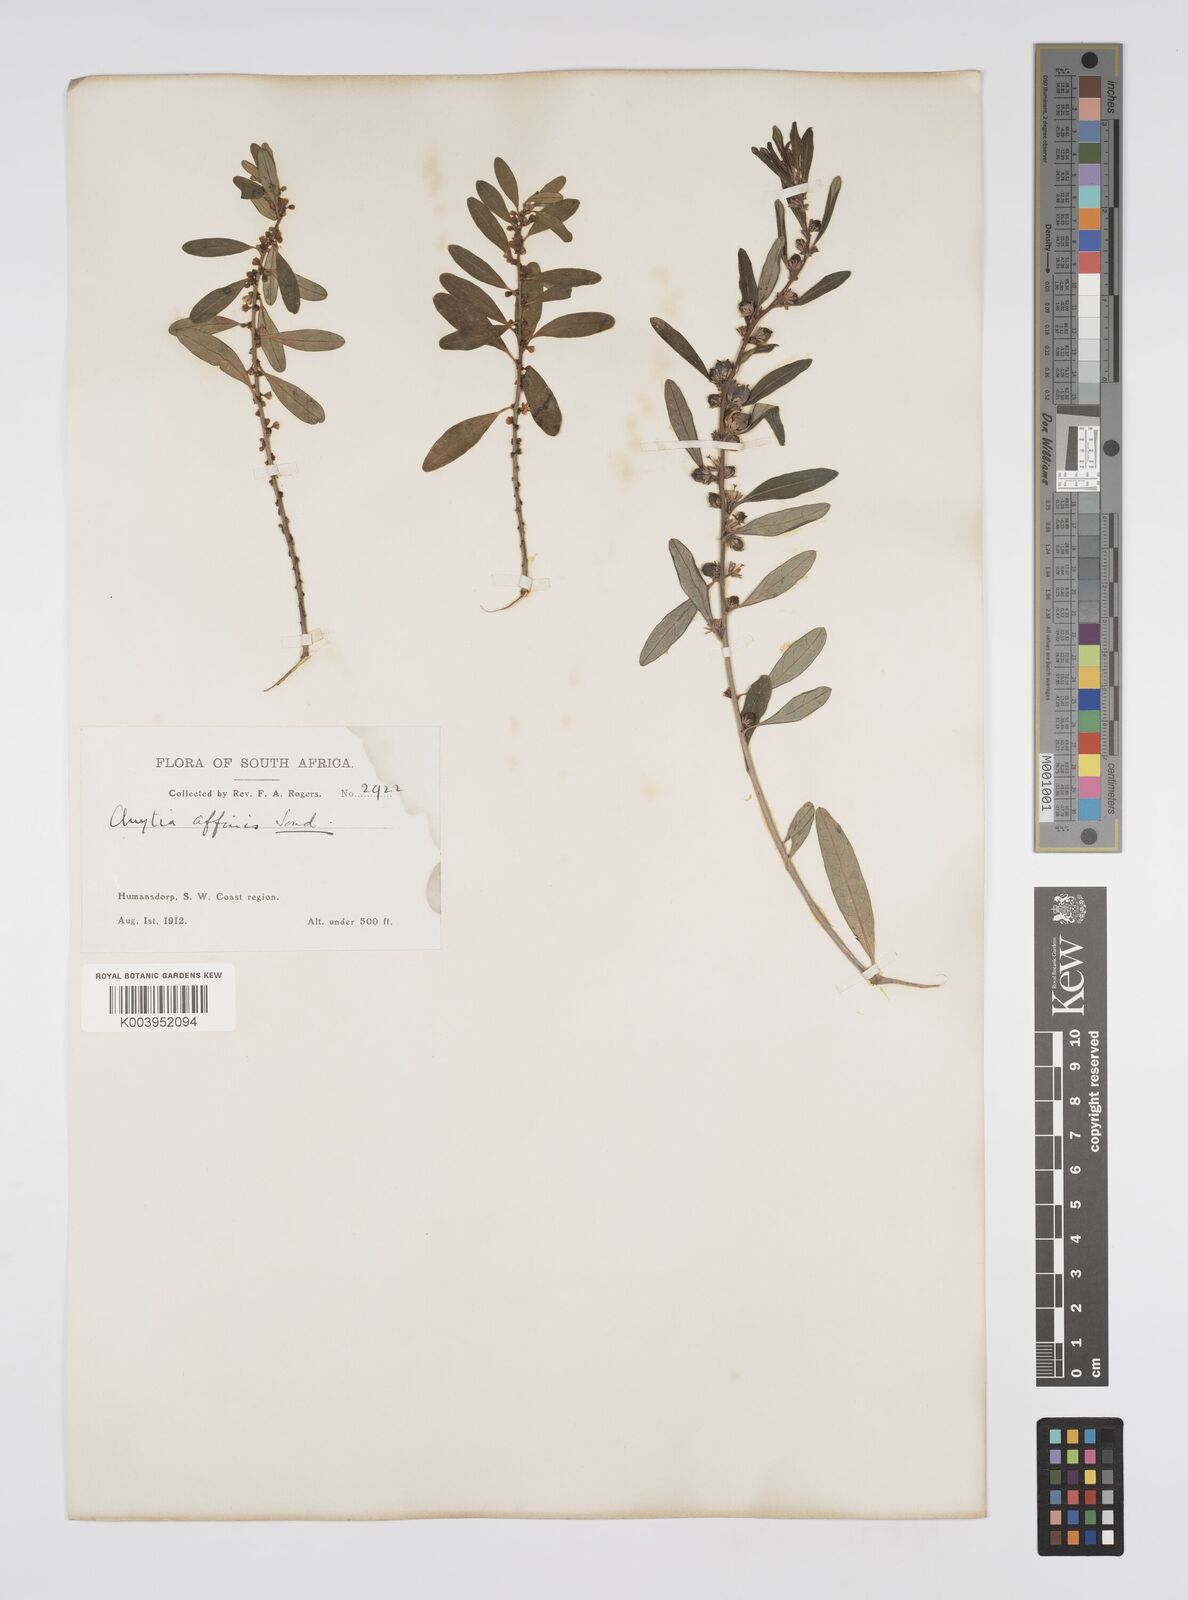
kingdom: Plantae
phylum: Tracheophyta
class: Magnoliopsida
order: Malpighiales
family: Peraceae
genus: Clutia
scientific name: Clutia affinis
